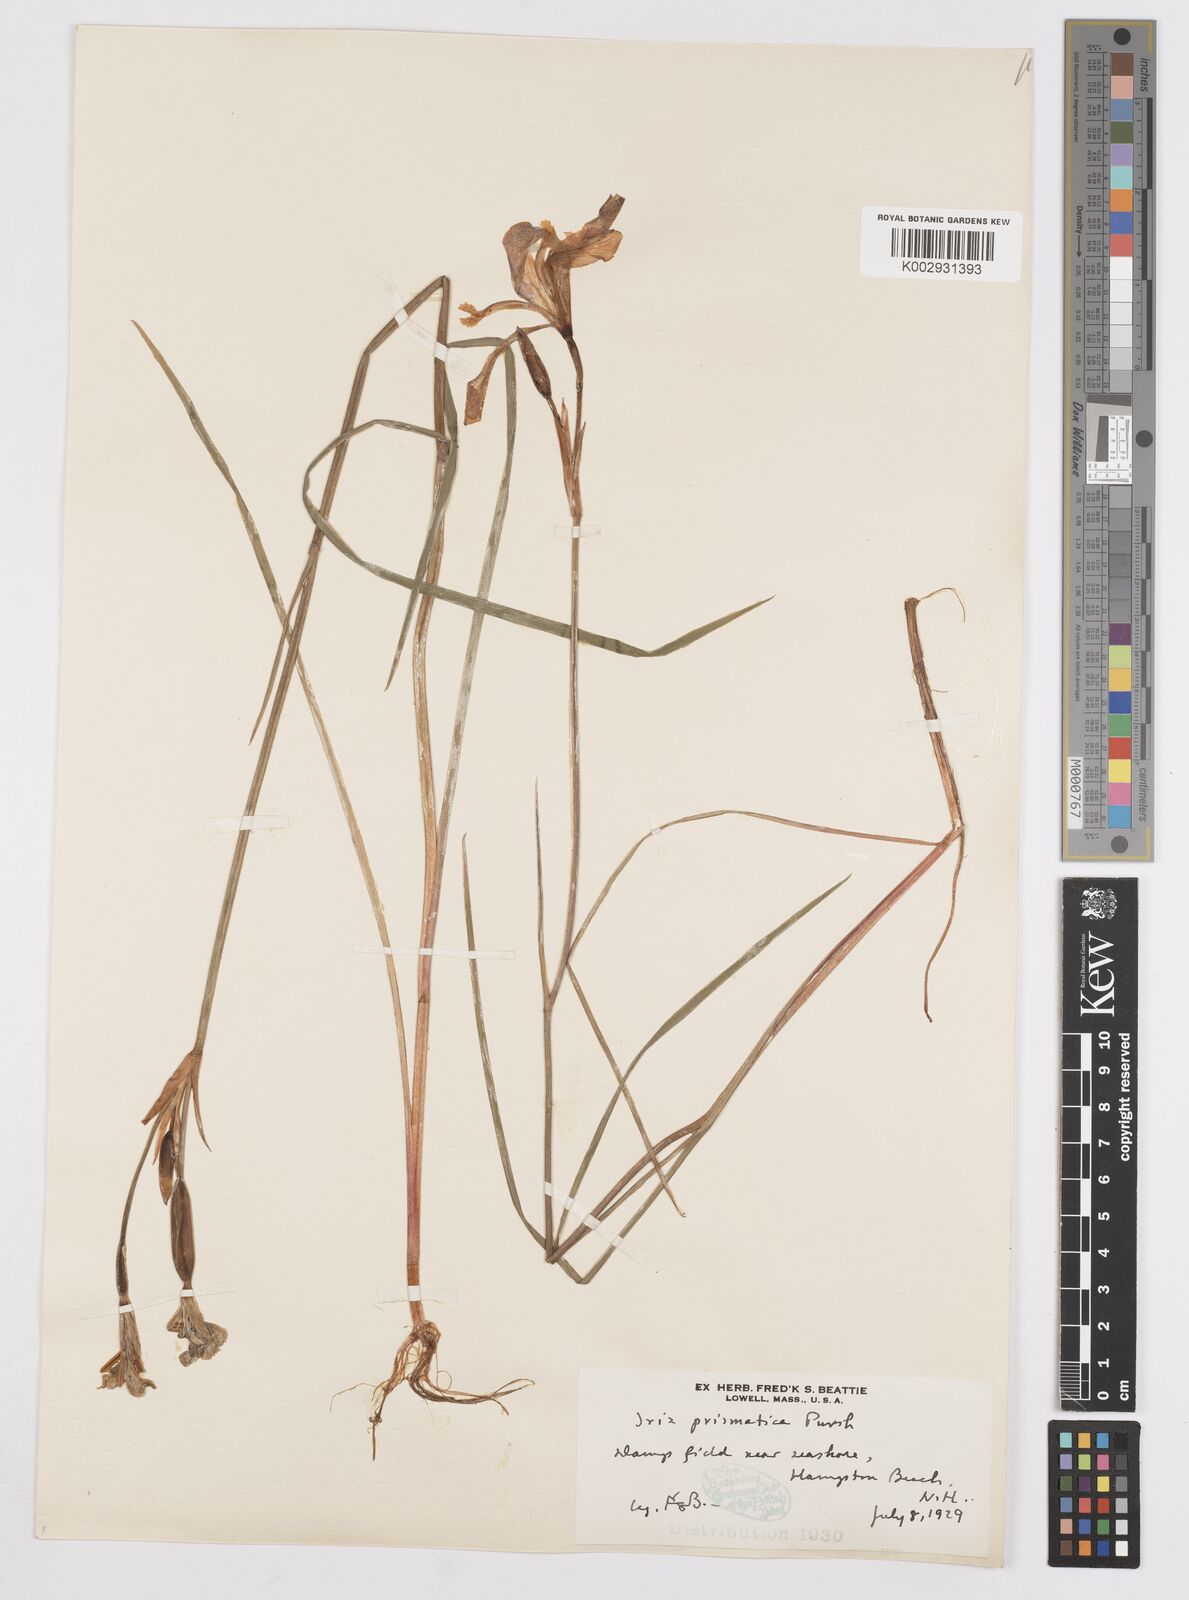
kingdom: Plantae
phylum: Tracheophyta
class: Liliopsida
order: Asparagales
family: Iridaceae
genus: Iris
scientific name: Iris prismatica
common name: Slender blue flag
